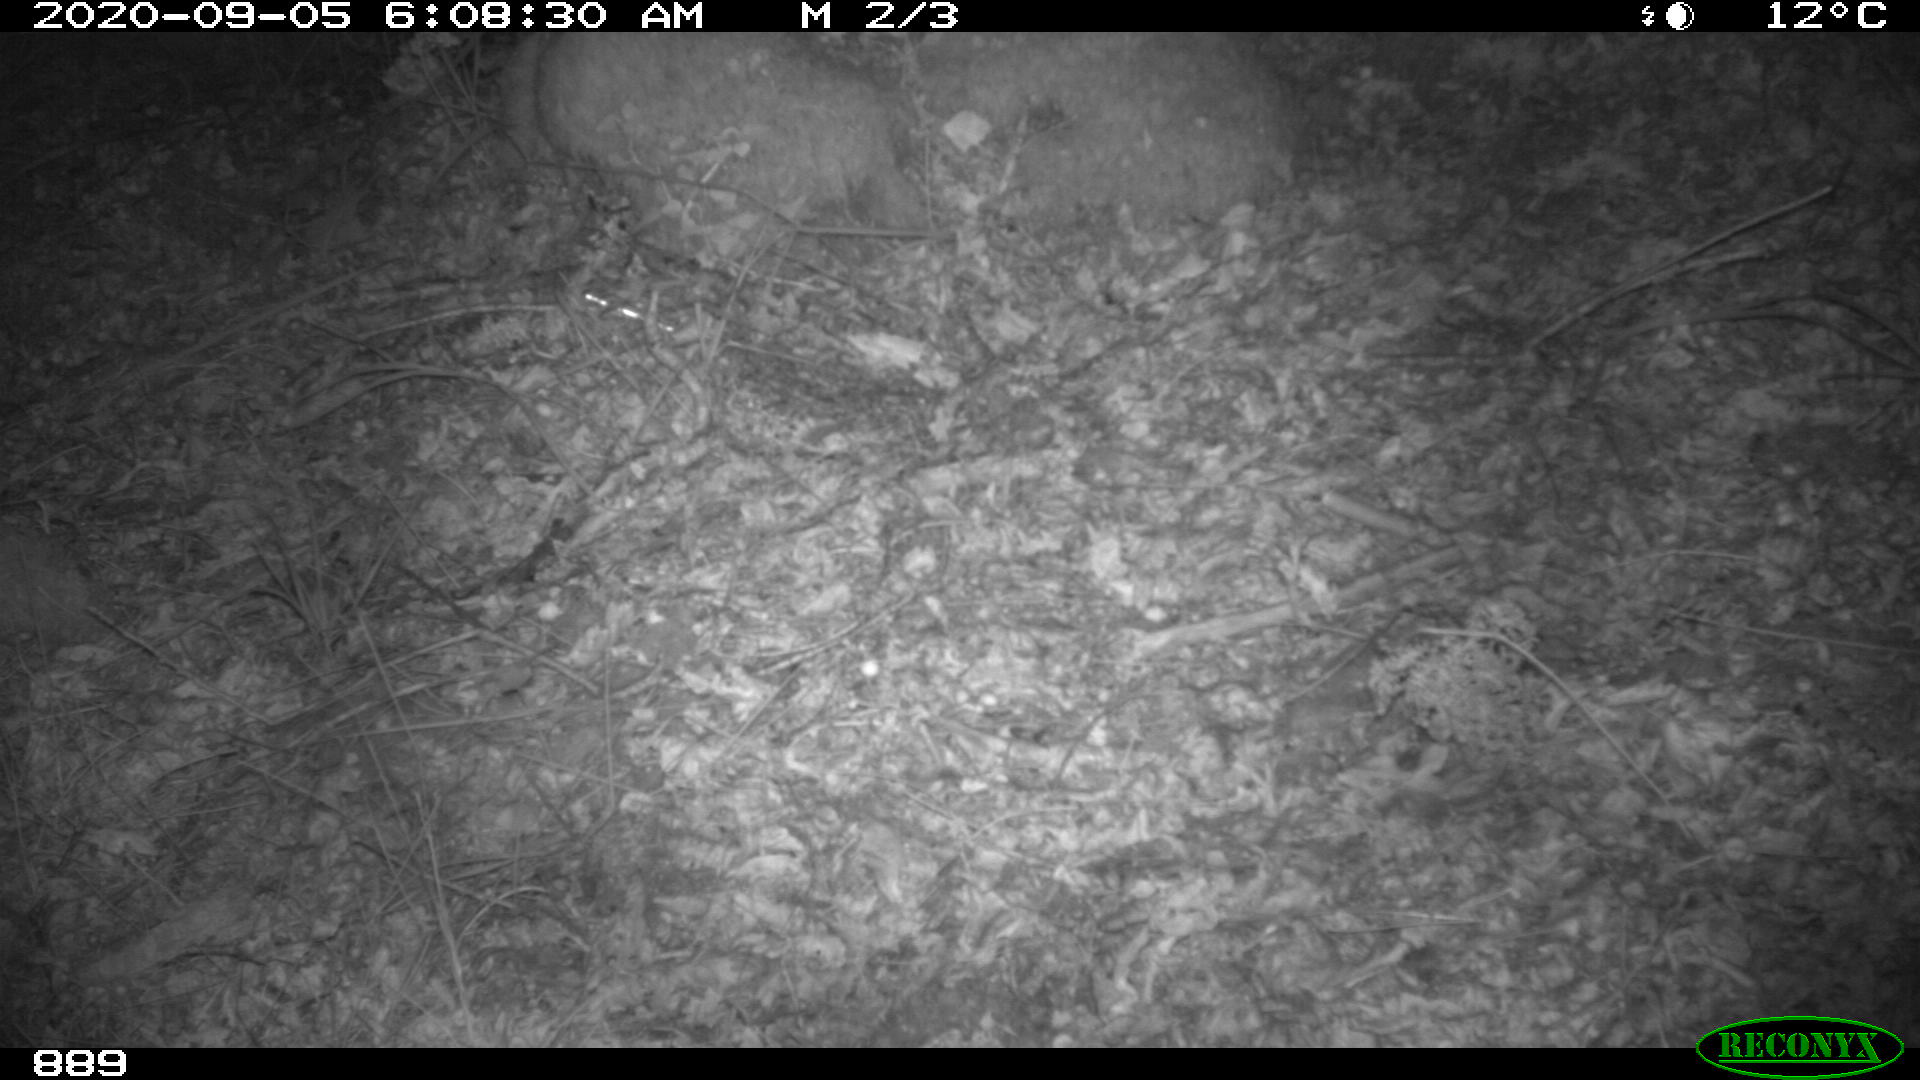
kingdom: Animalia
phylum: Chordata
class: Mammalia
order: Artiodactyla
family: Suidae
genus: Sus
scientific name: Sus scrofa
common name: Wild boar
